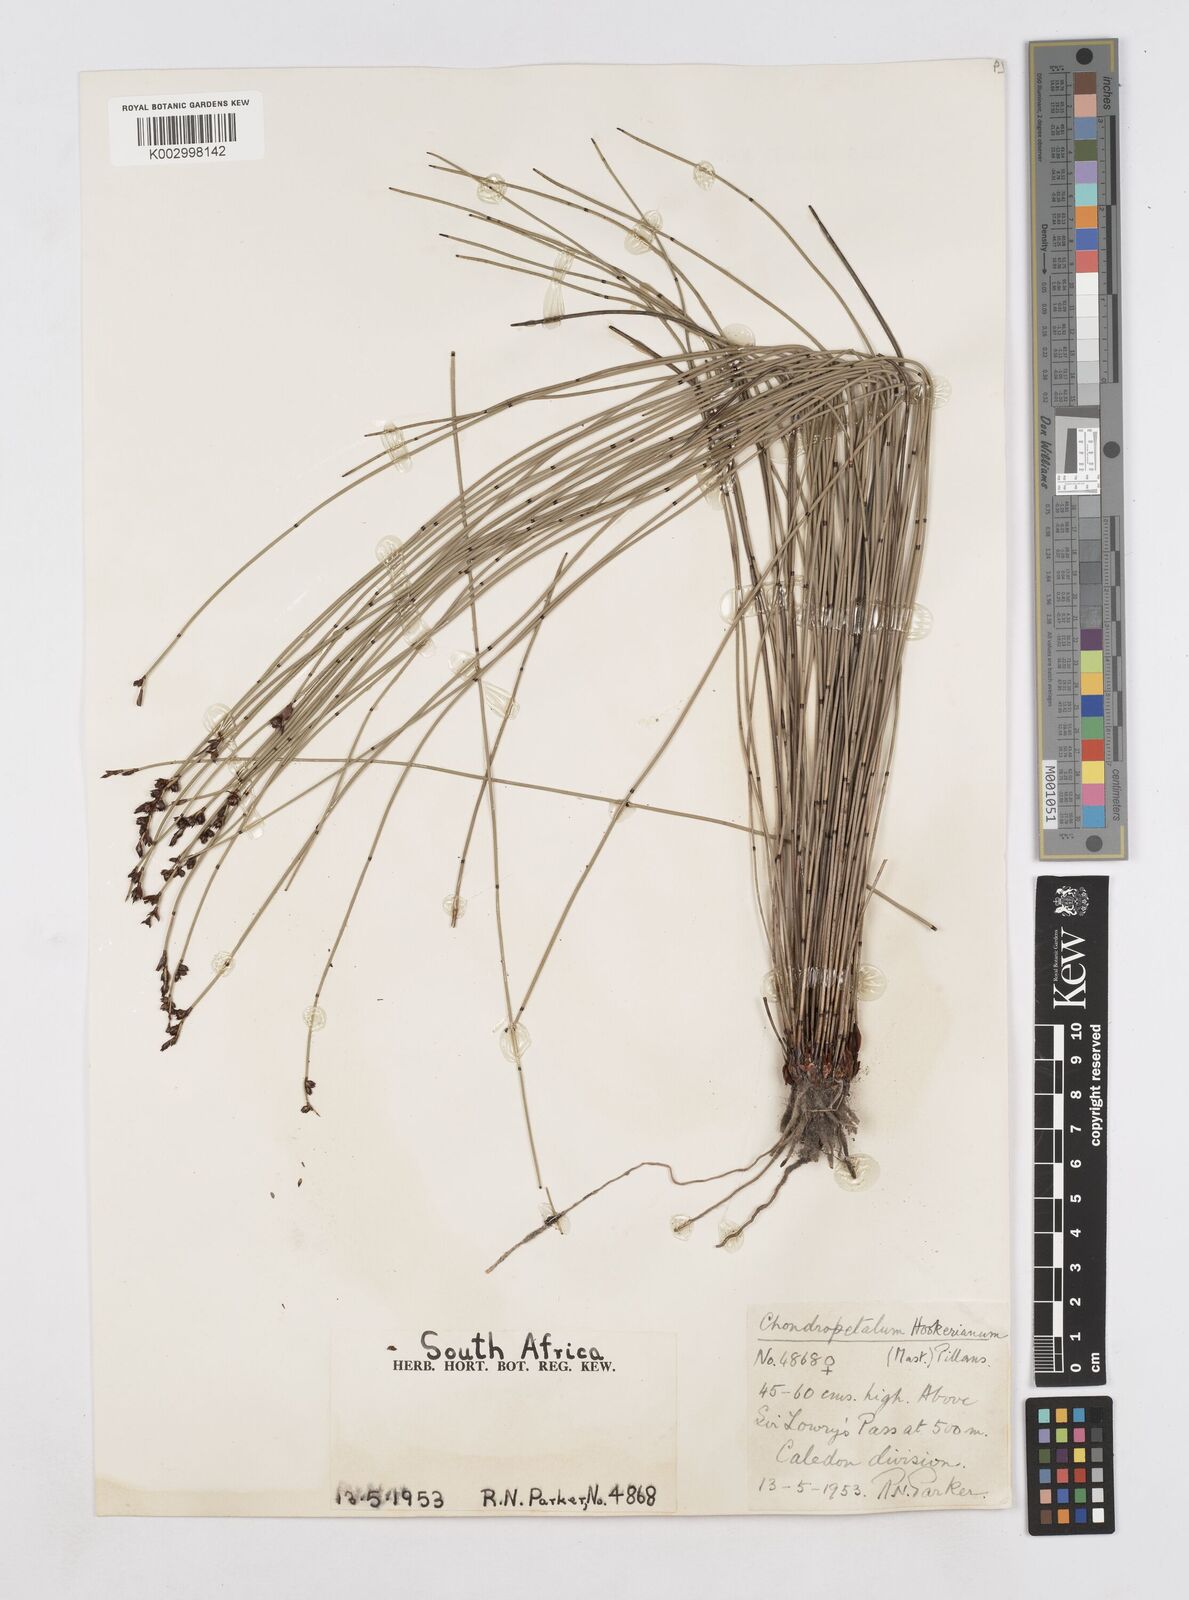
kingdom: Plantae
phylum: Tracheophyta
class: Liliopsida
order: Poales
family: Restionaceae
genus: Elegia
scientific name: Elegia hookeriana
